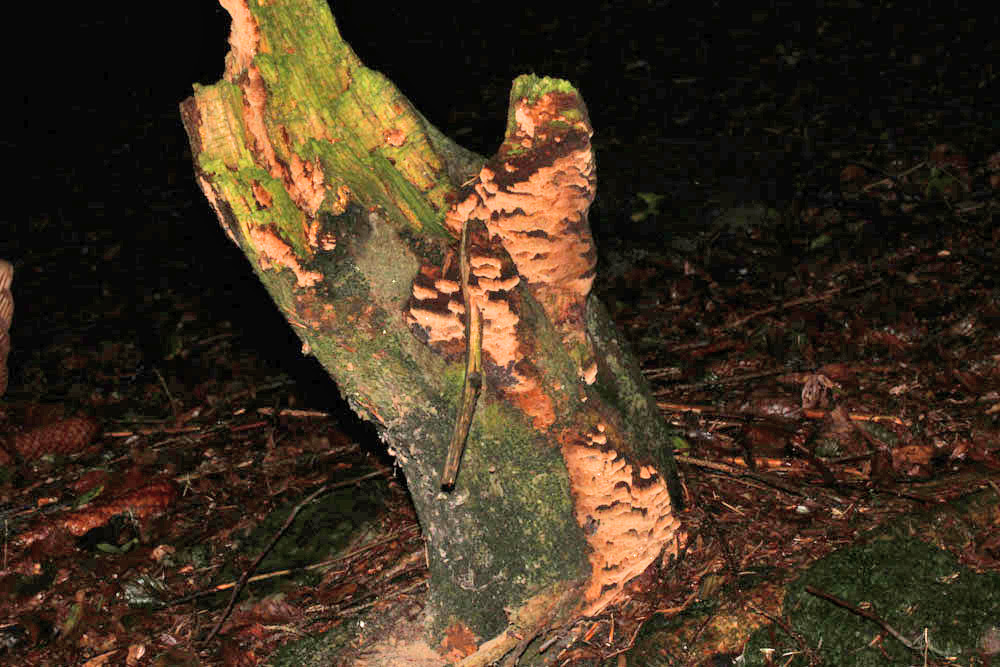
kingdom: Fungi
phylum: Basidiomycota
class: Agaricomycetes
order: Hymenochaetales
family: Hymenochaetaceae
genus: Mensularia
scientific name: Mensularia nodulosa
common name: bøge-spejlporesvamp
